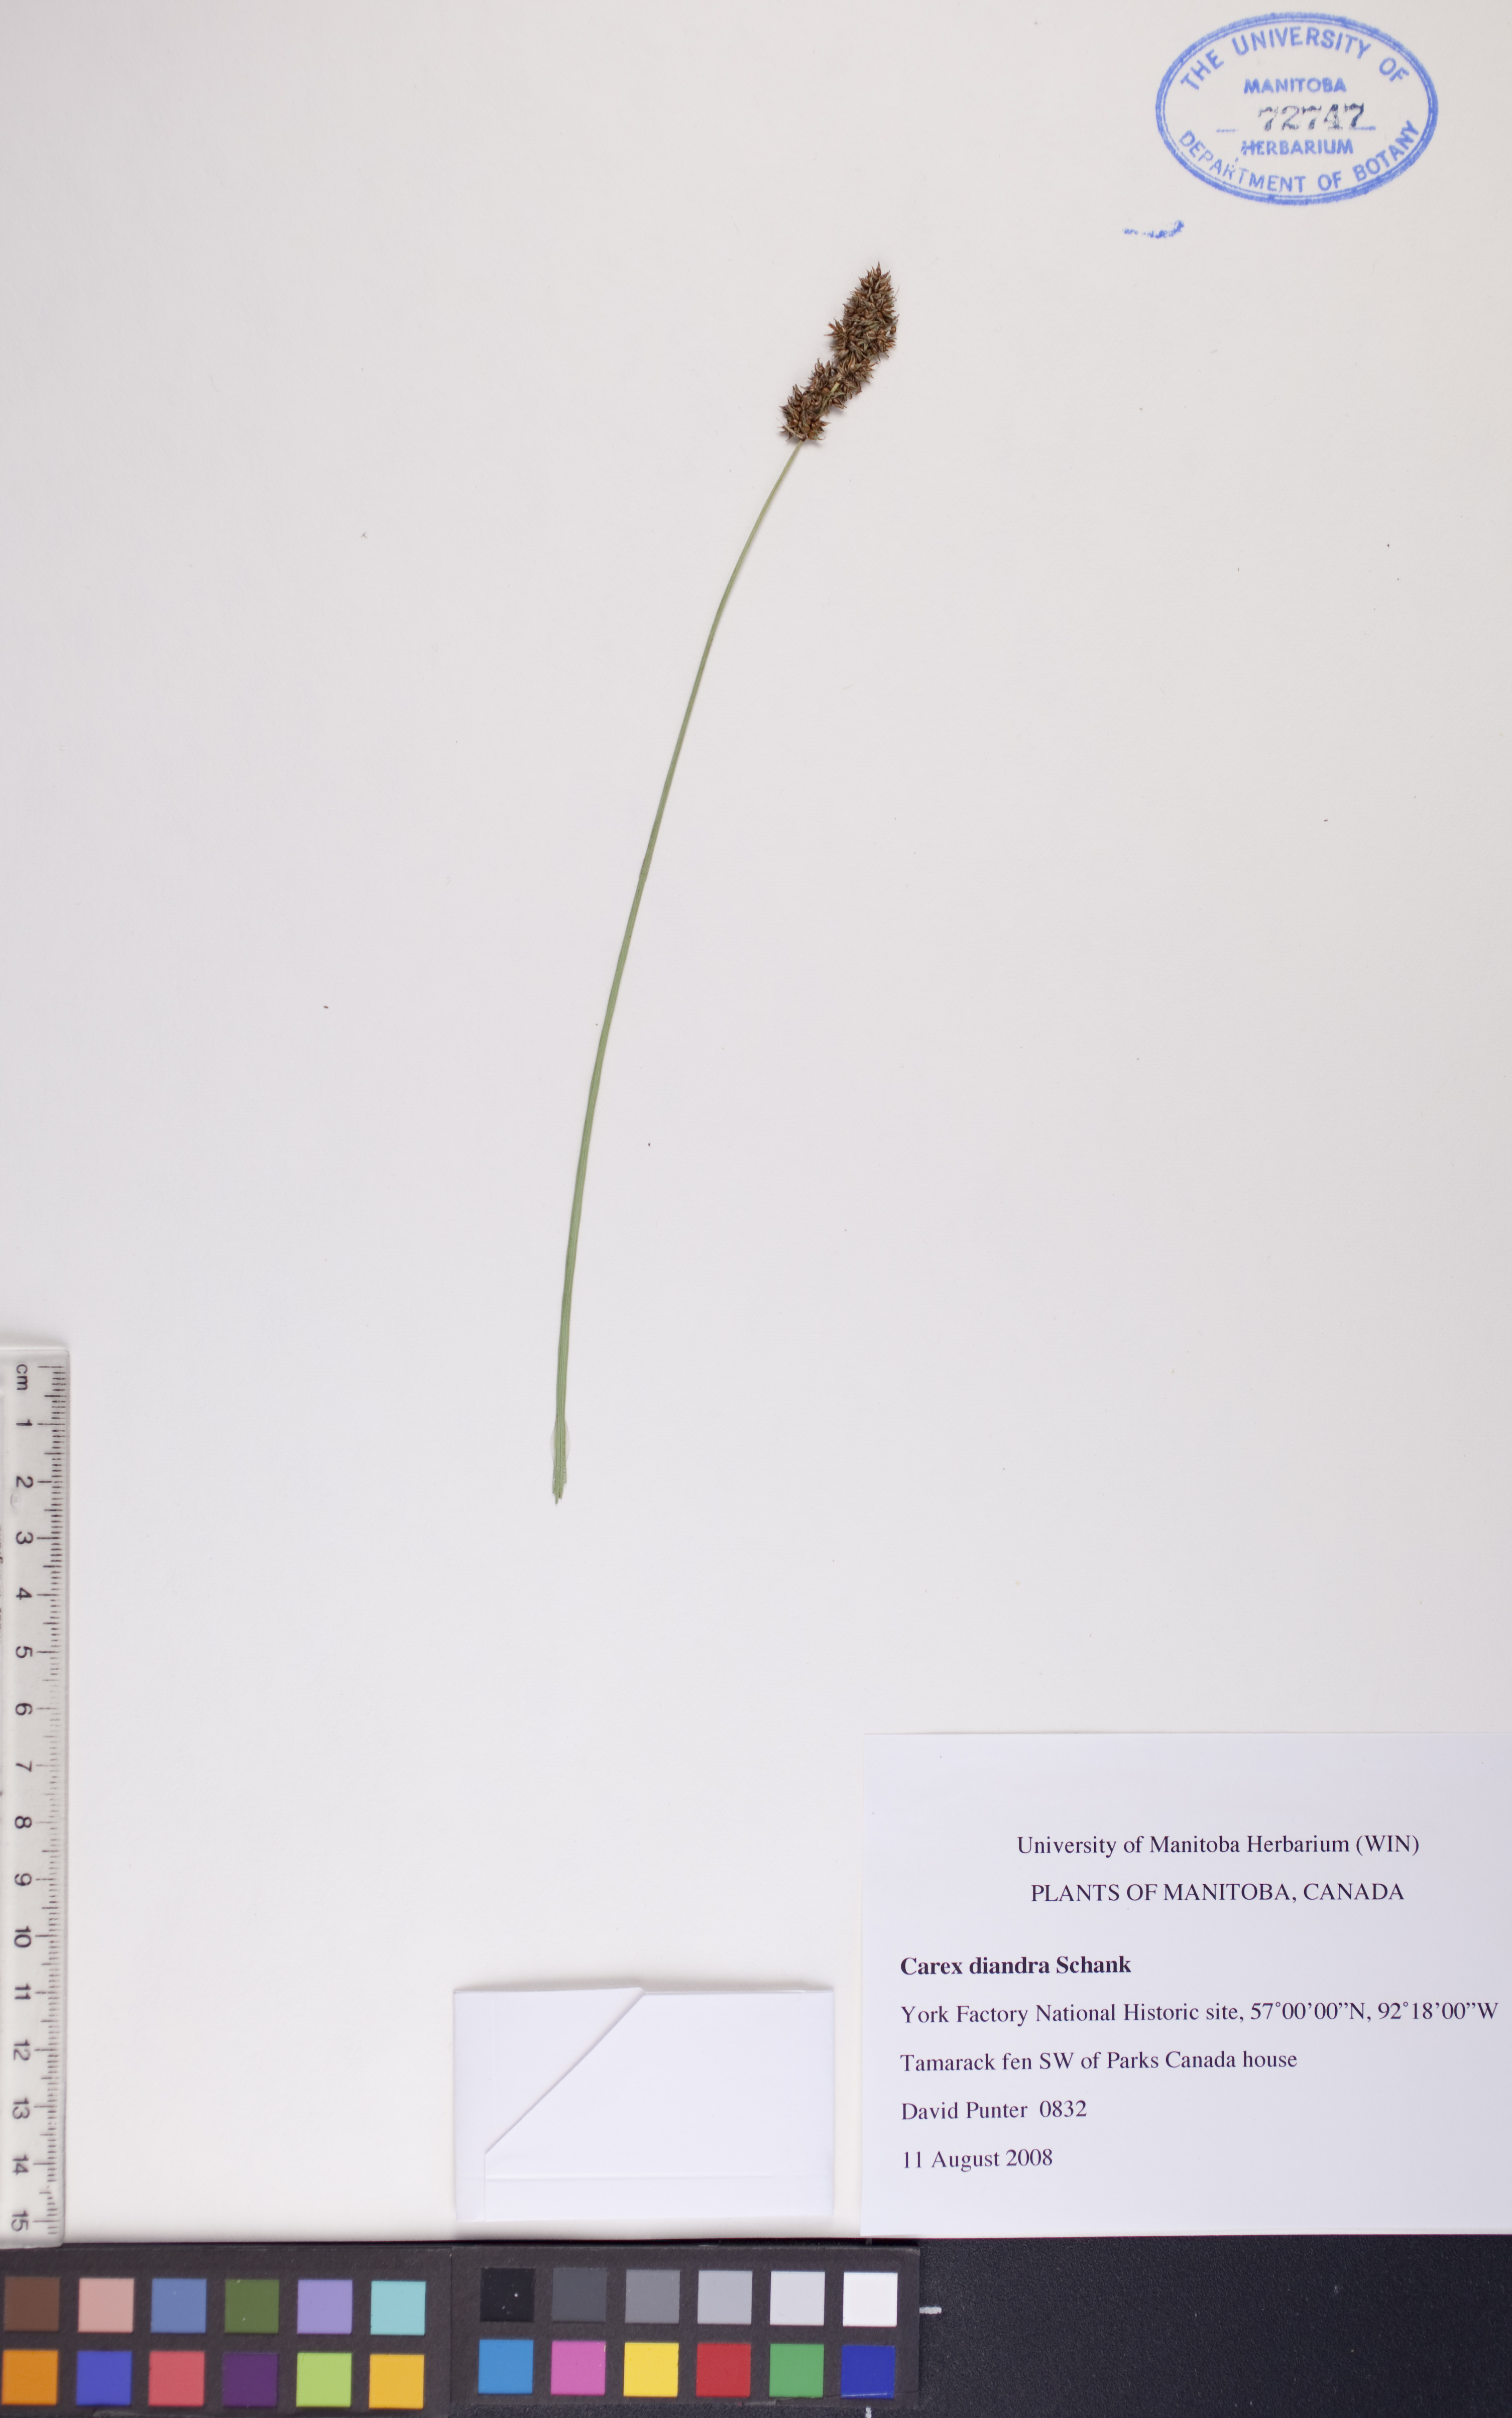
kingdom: Plantae
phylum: Tracheophyta
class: Liliopsida
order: Poales
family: Cyperaceae
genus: Carex
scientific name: Carex diandra
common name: Lesser tussock-sedge
